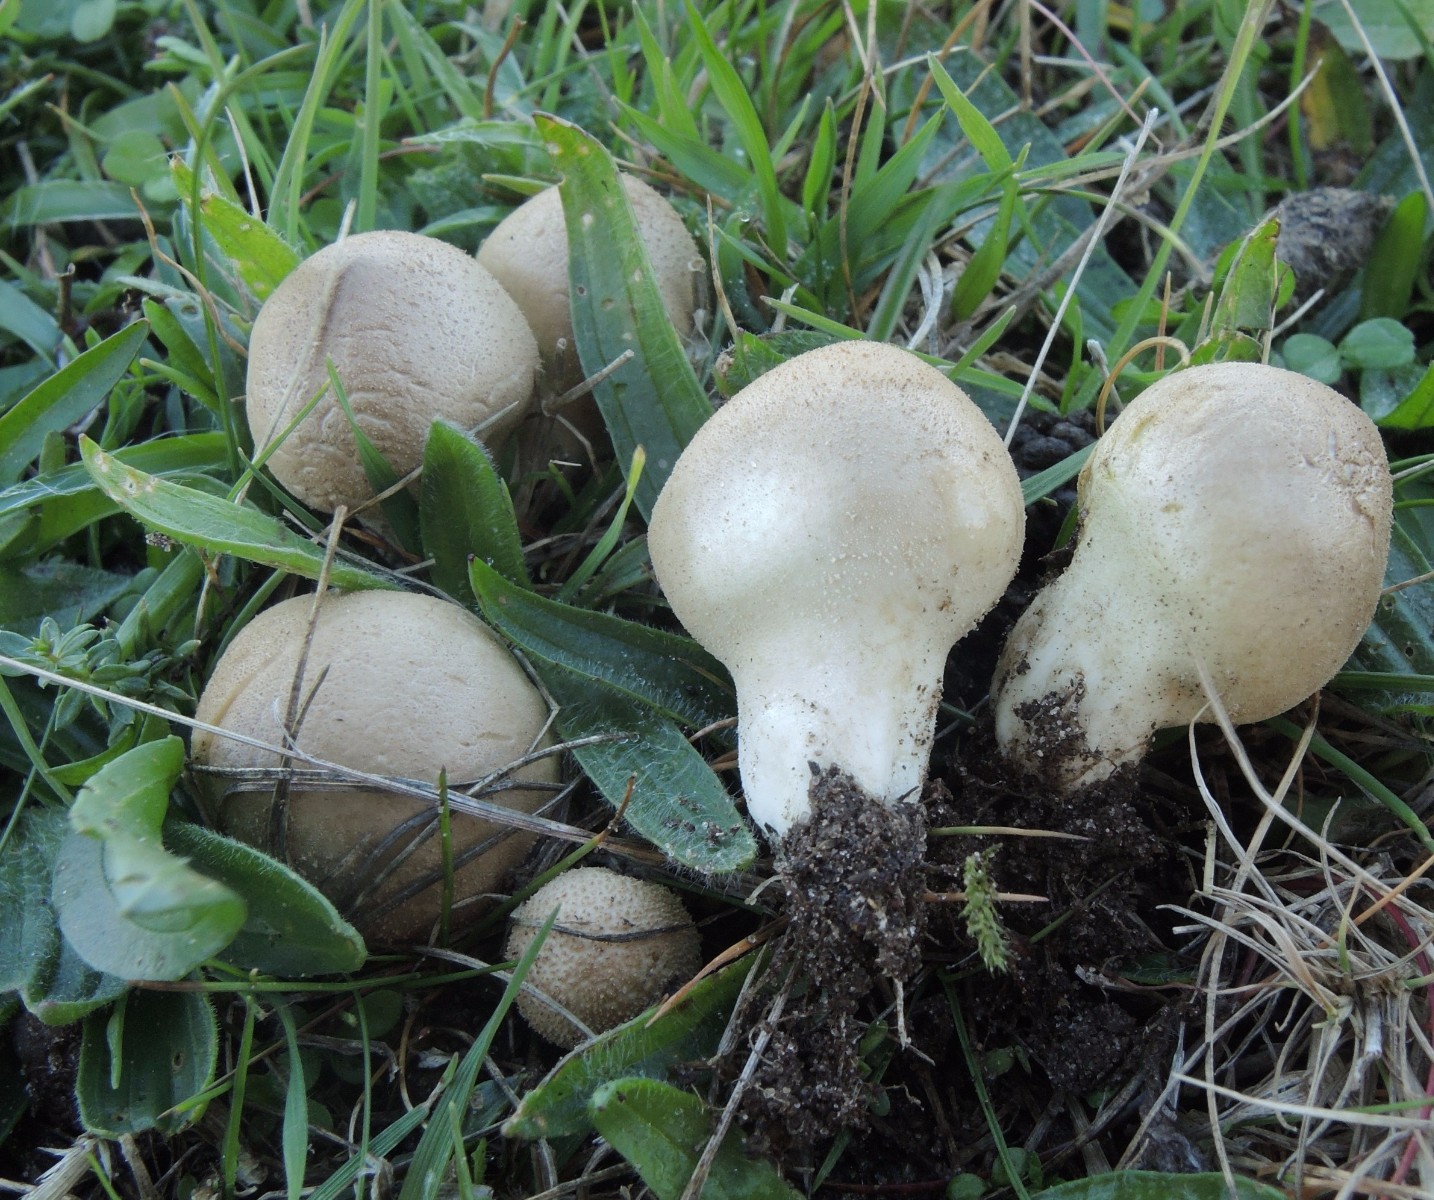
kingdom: Fungi
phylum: Basidiomycota
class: Agaricomycetes
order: Agaricales
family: Lycoperdaceae
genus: Lycoperdon
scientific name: Lycoperdon lividum
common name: mark-støvbold
